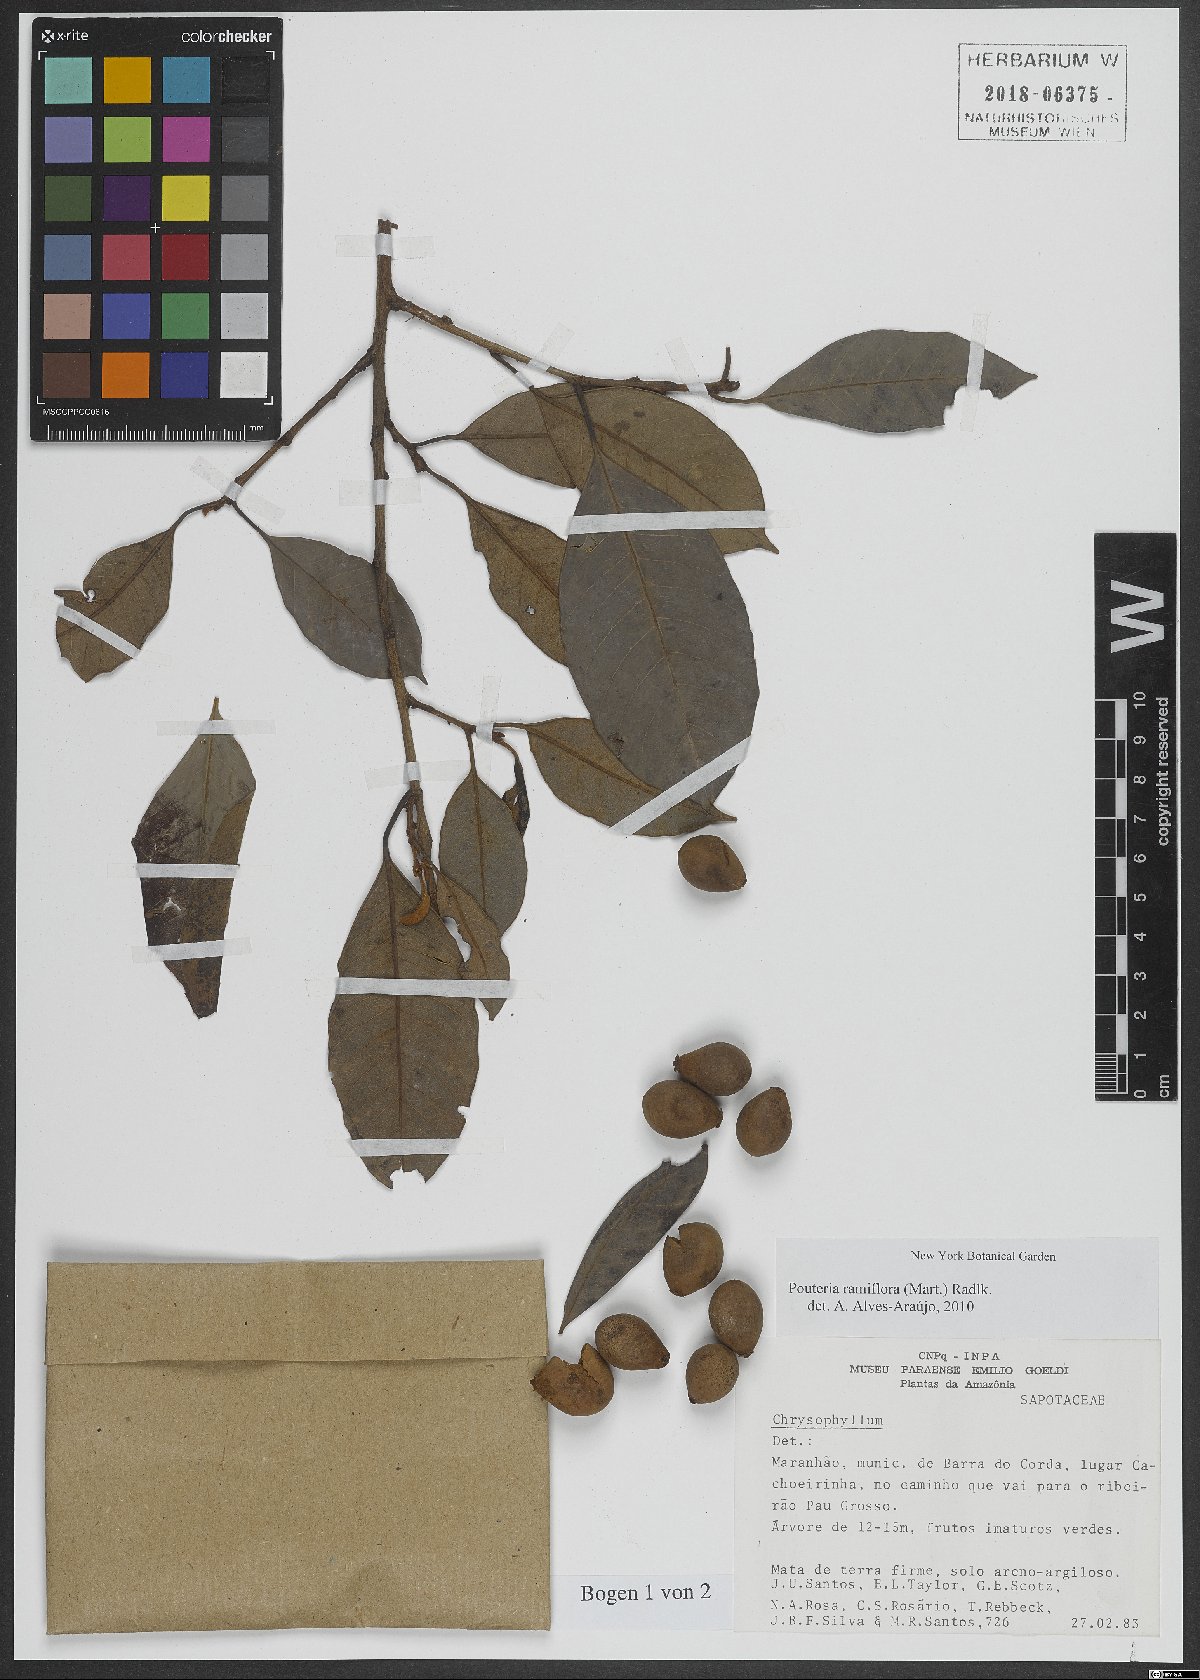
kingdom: Plantae
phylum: Tracheophyta
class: Magnoliopsida
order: Ericales
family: Sapotaceae
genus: Pouteria
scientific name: Pouteria ramiflora
